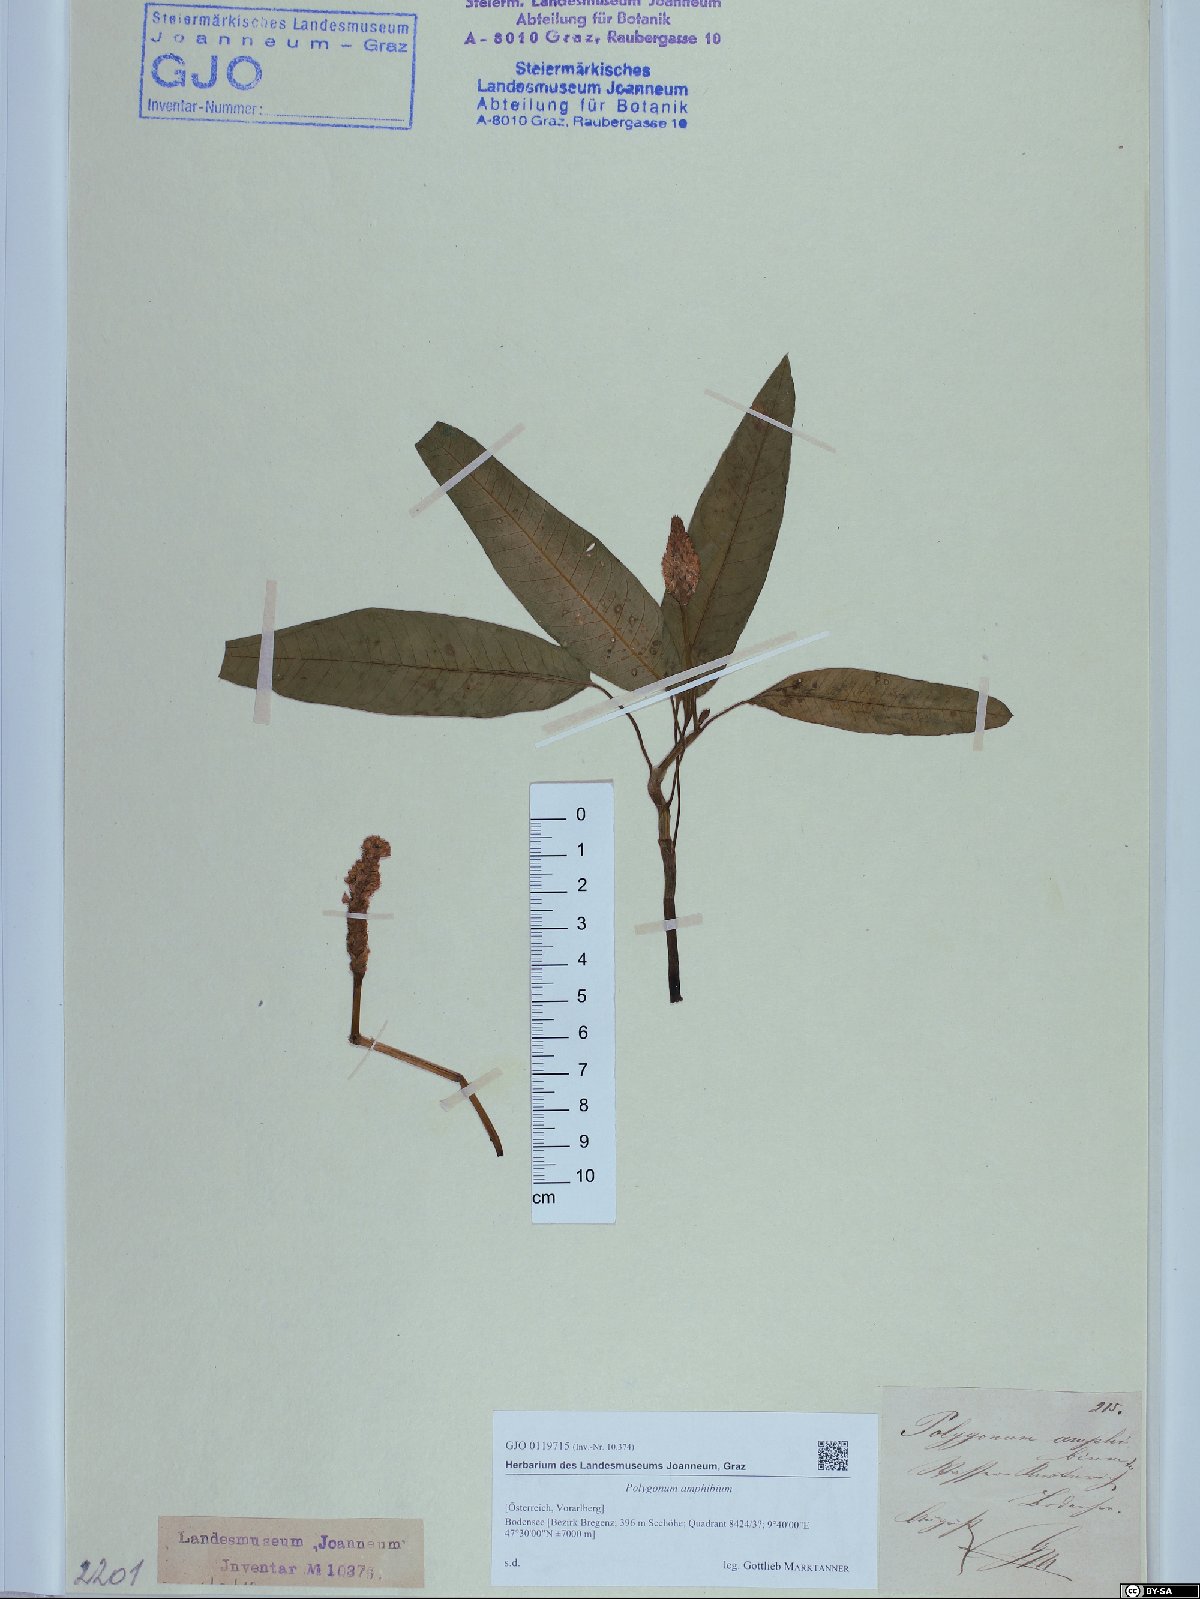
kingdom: Plantae
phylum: Tracheophyta
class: Magnoliopsida
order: Caryophyllales
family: Polygonaceae
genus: Persicaria
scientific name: Persicaria amphibia
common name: Amphibious bistort
